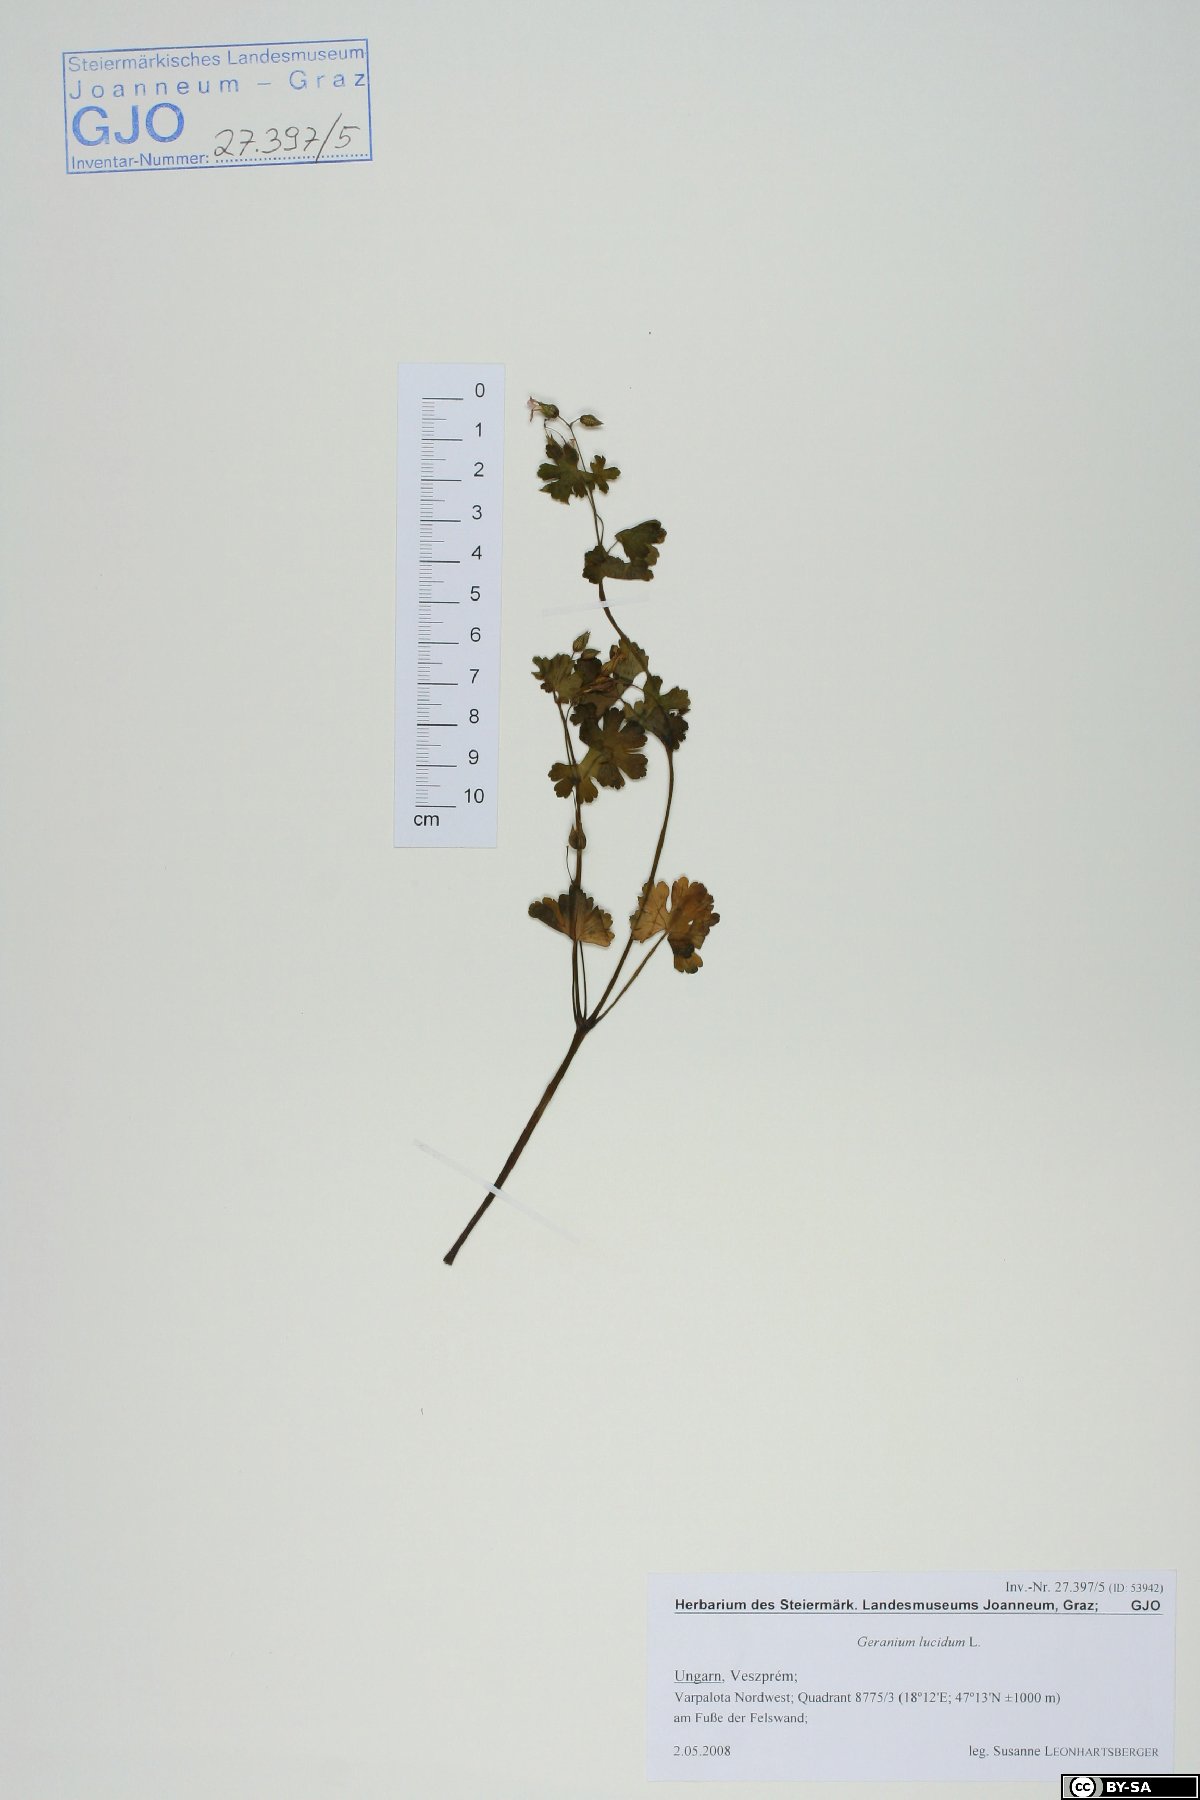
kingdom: Plantae
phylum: Tracheophyta
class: Magnoliopsida
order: Geraniales
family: Geraniaceae
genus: Geranium
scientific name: Geranium lucidum
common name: Shining crane's-bill
